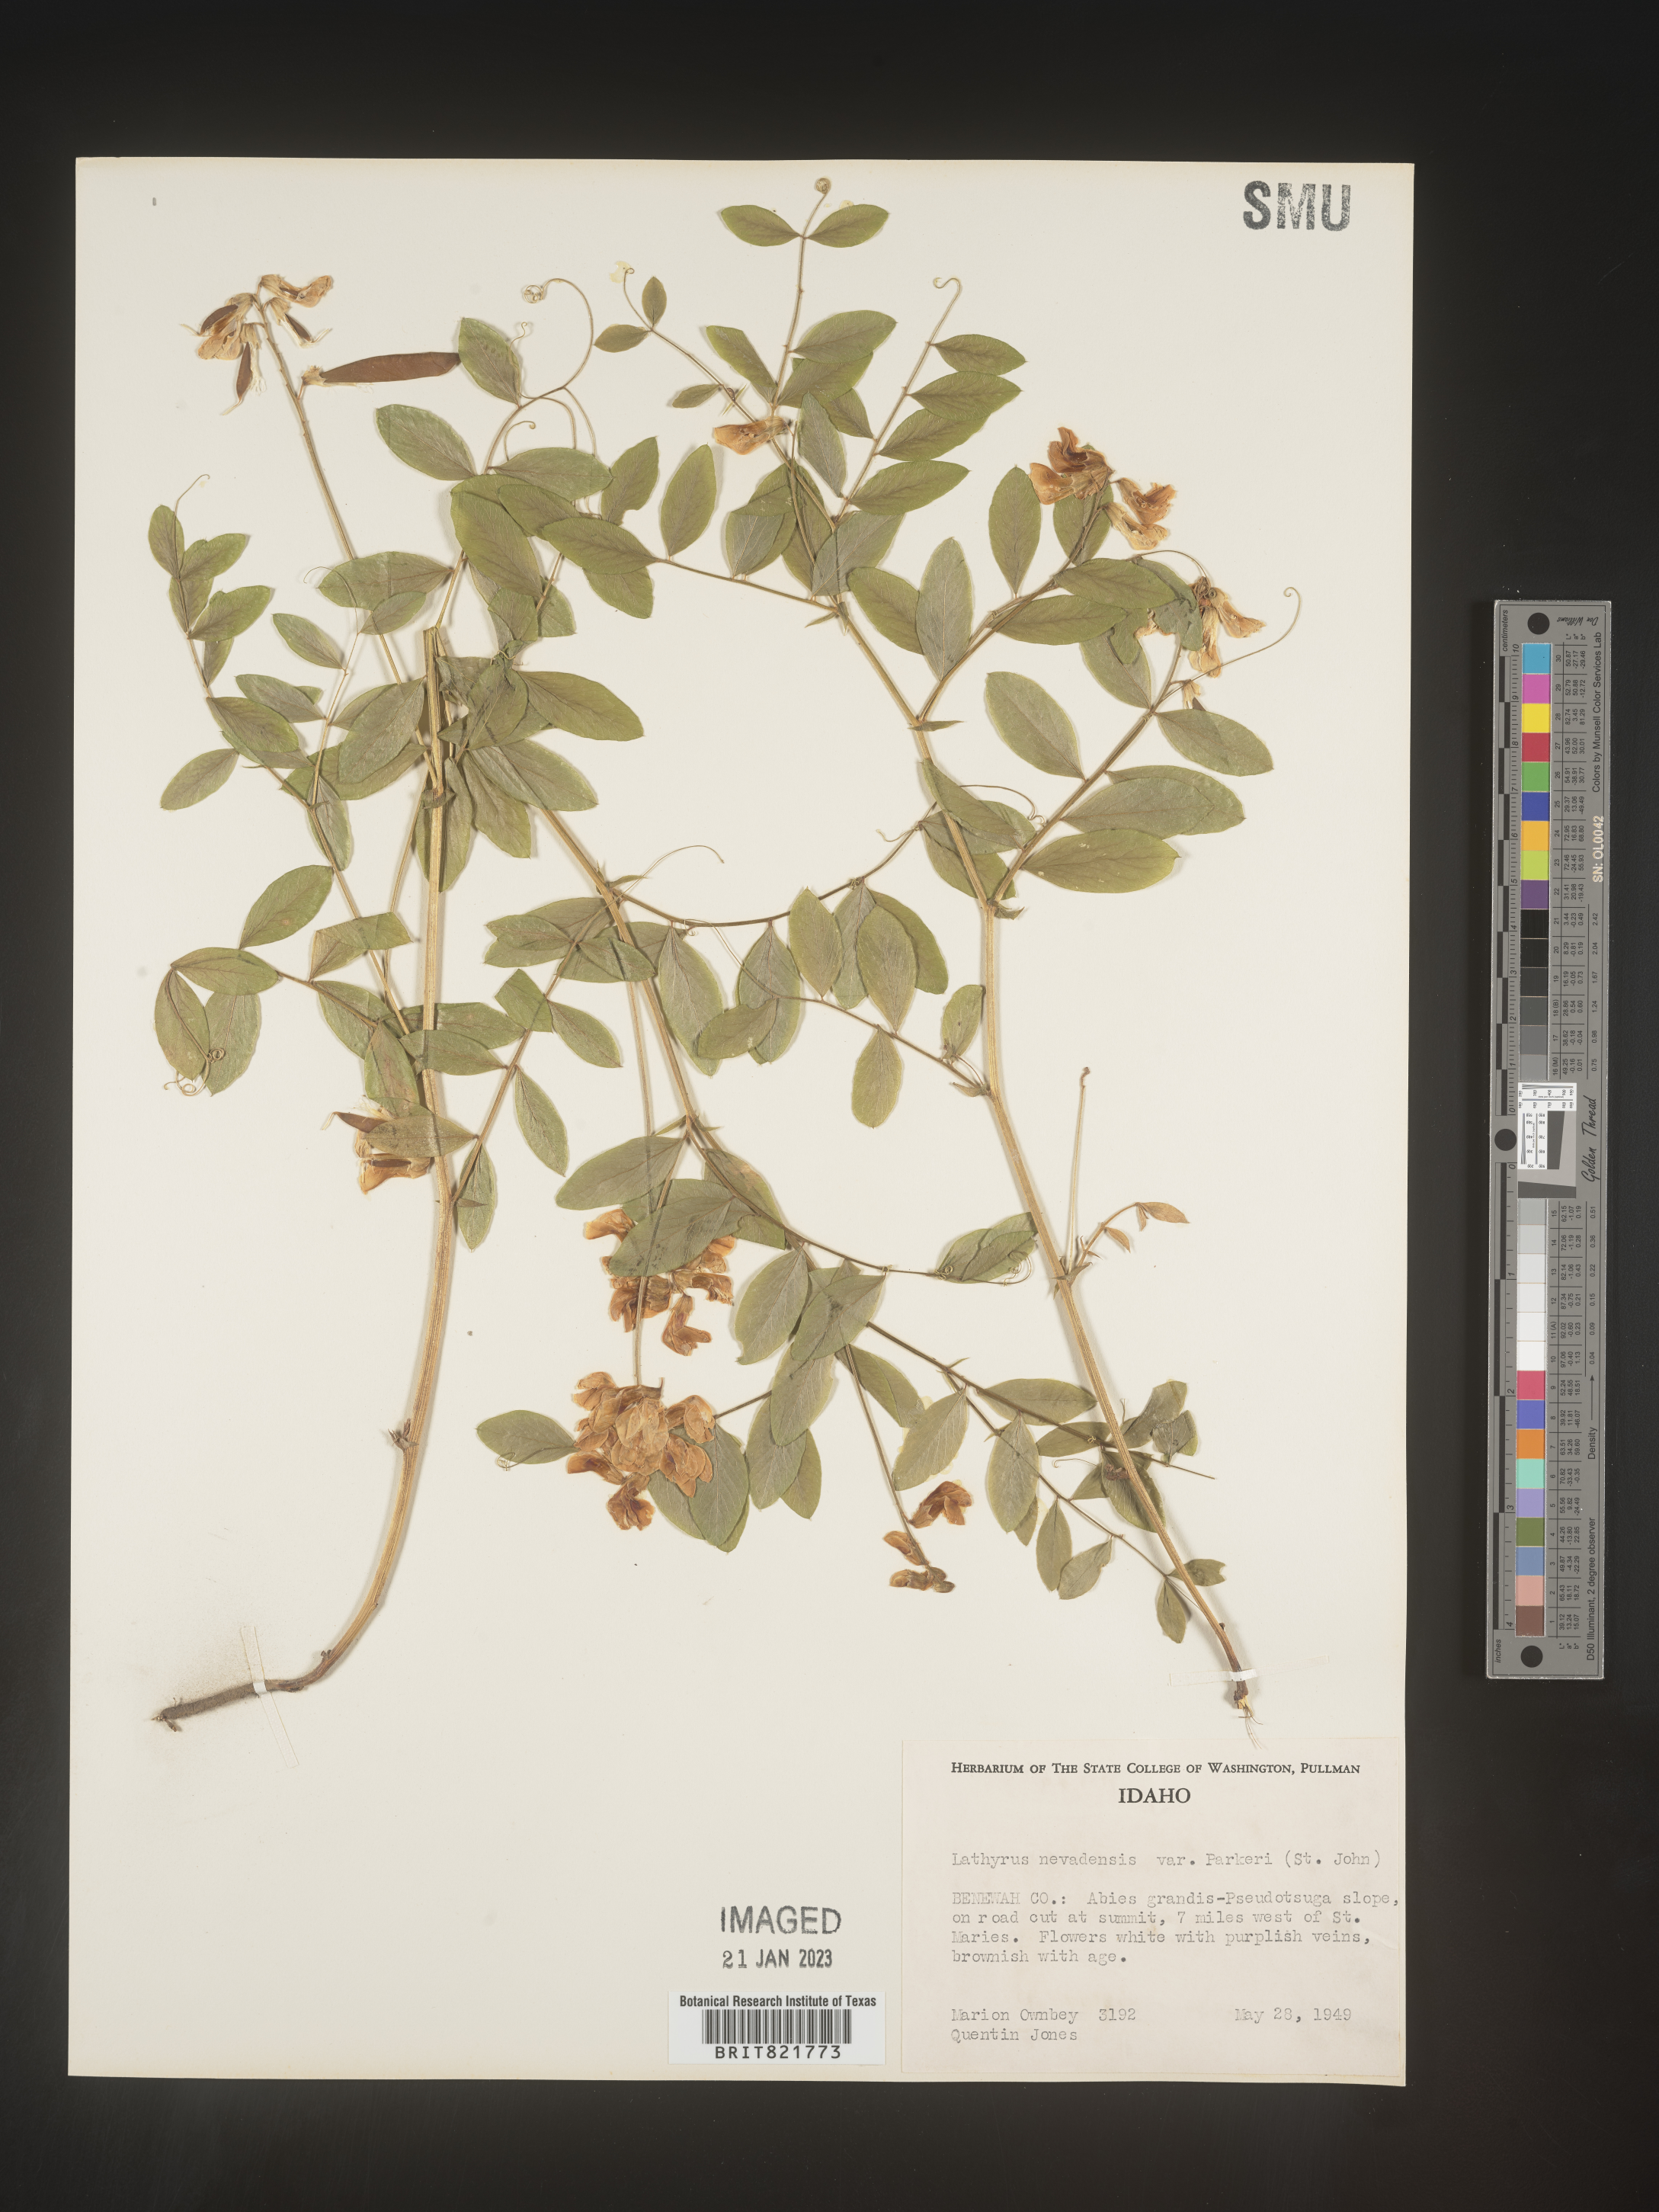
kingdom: Plantae
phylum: Tracheophyta
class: Magnoliopsida
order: Fabales
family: Fabaceae
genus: Lathyrus
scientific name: Lathyrus
